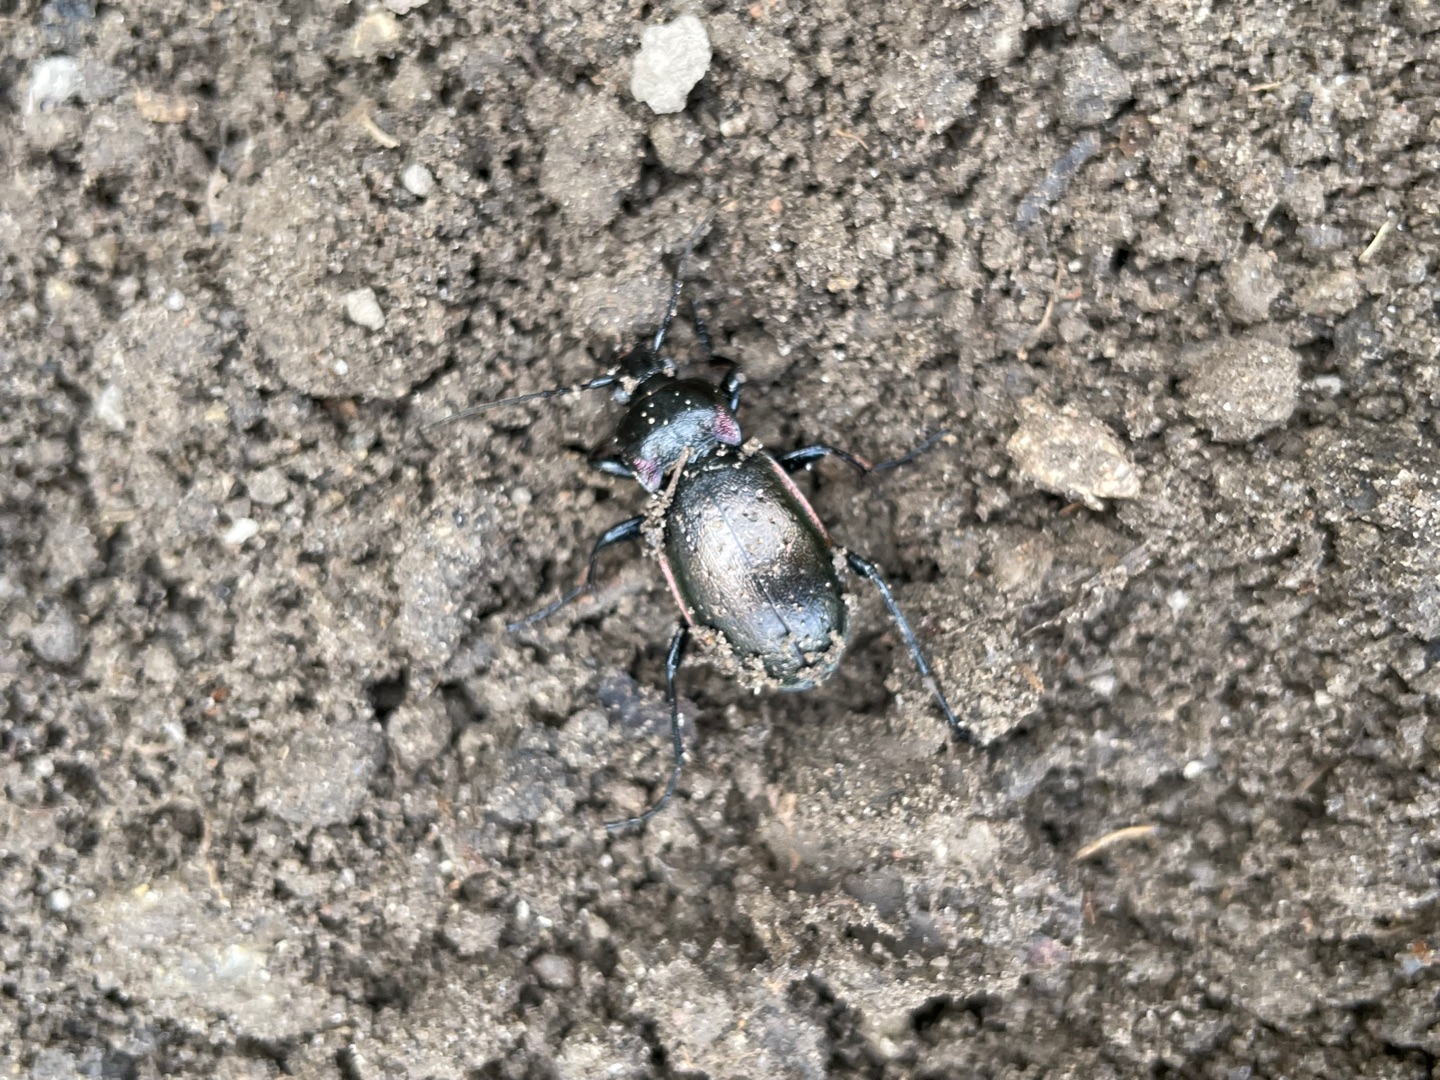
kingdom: Animalia
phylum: Arthropoda
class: Insecta
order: Coleoptera
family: Carabidae
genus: Carabus
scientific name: Carabus nemoralis
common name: Kratløber
